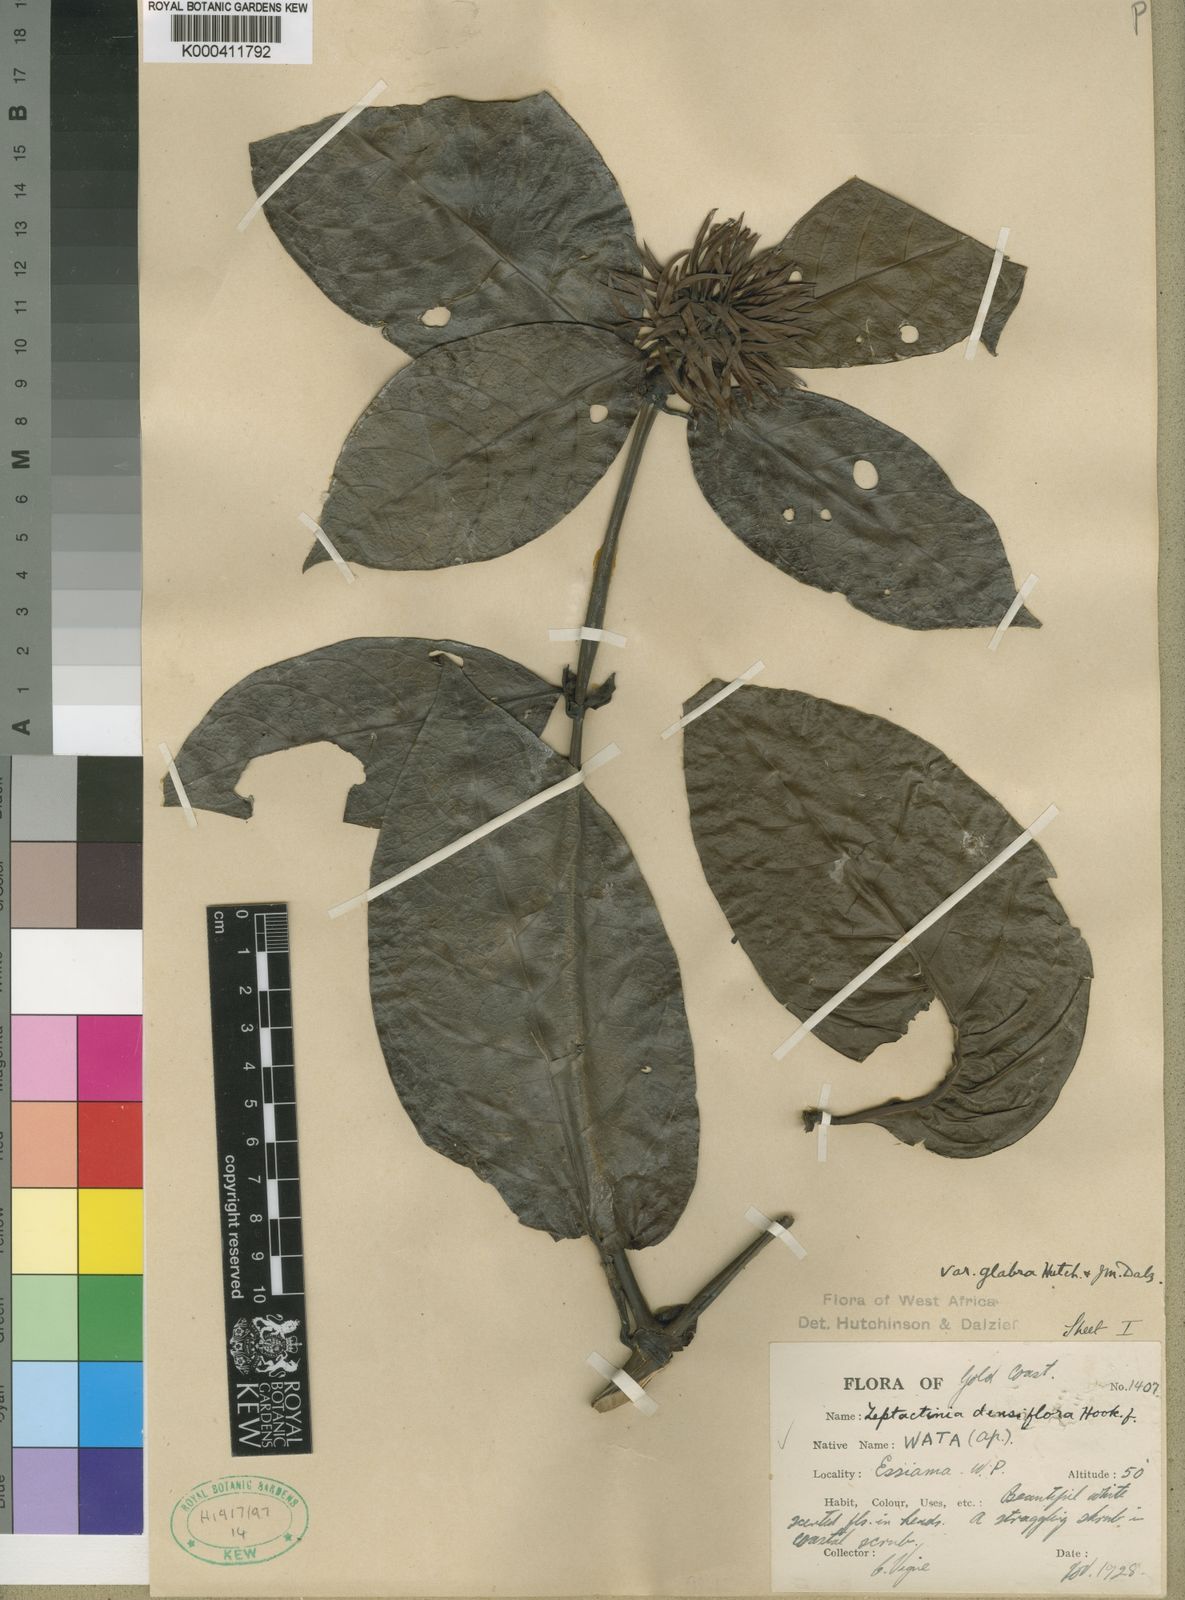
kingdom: Plantae
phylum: Tracheophyta
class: Magnoliopsida
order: Gentianales
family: Rubiaceae
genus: Leptactina
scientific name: Leptactina densiflora
